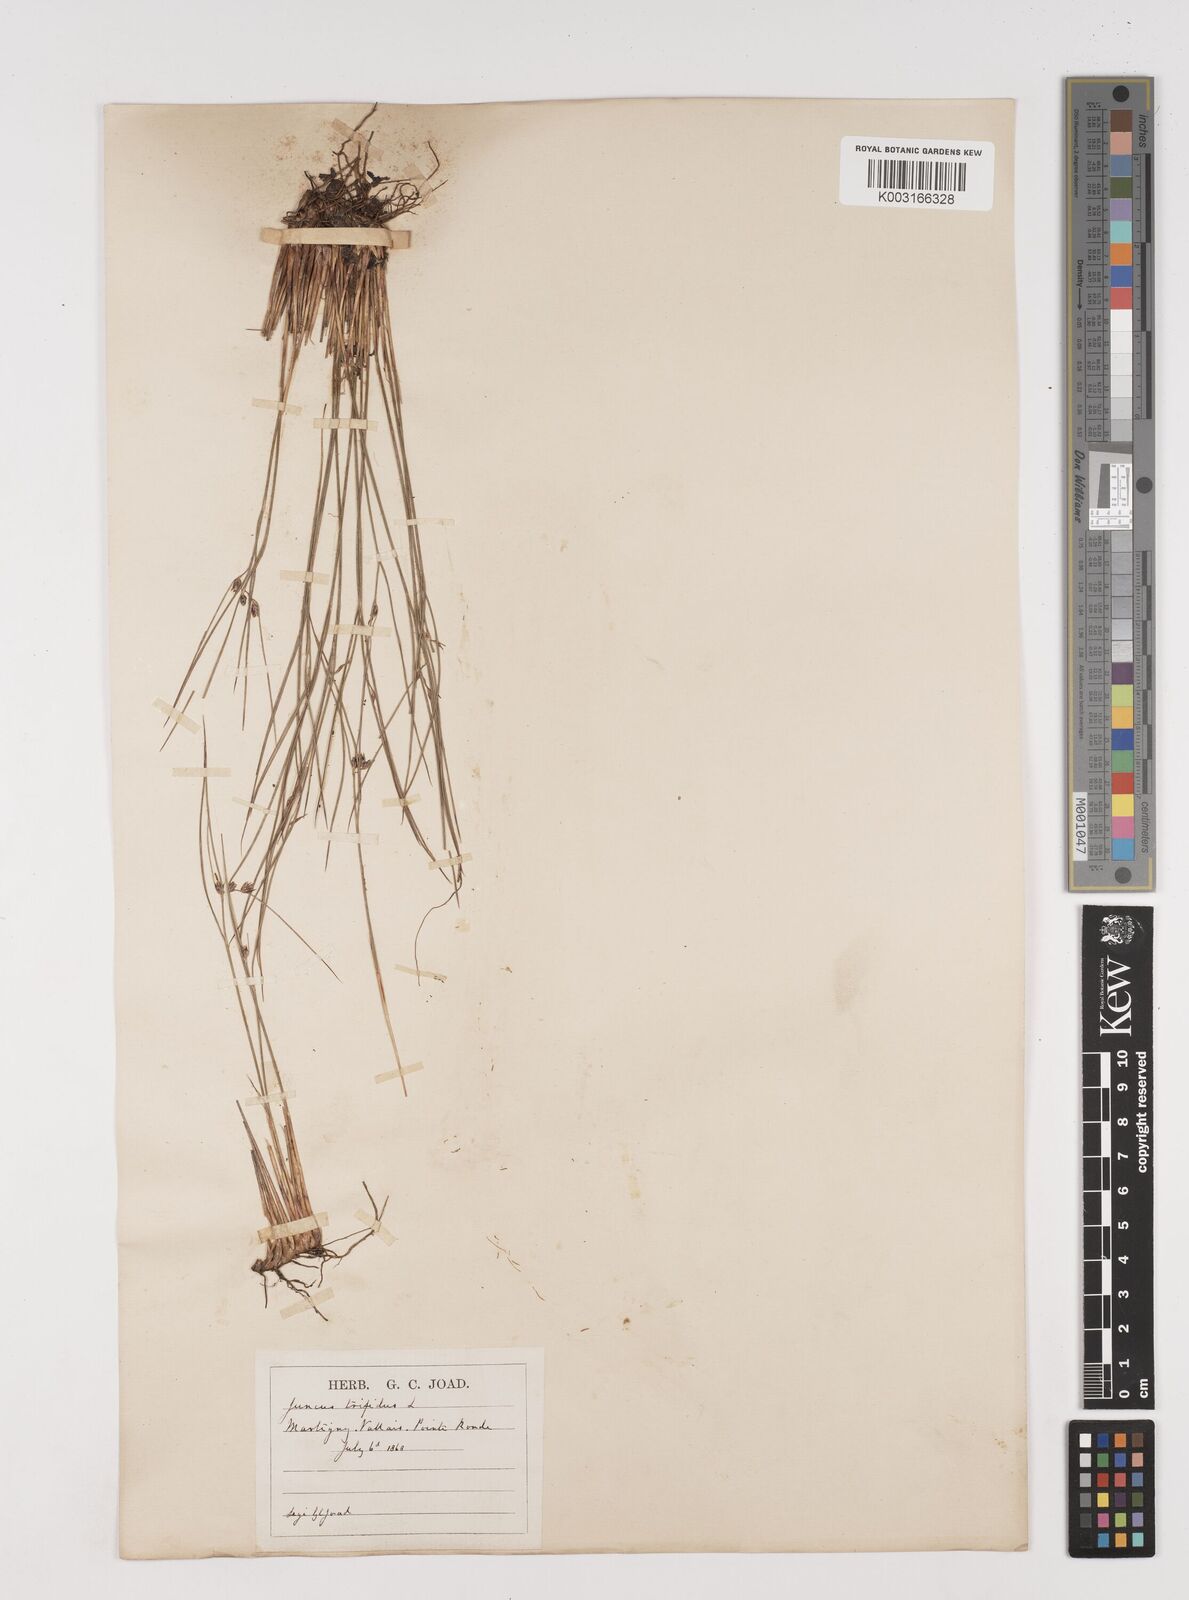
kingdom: Plantae
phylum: Tracheophyta
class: Liliopsida
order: Poales
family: Juncaceae
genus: Oreojuncus
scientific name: Oreojuncus trifidus
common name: Highland rush
